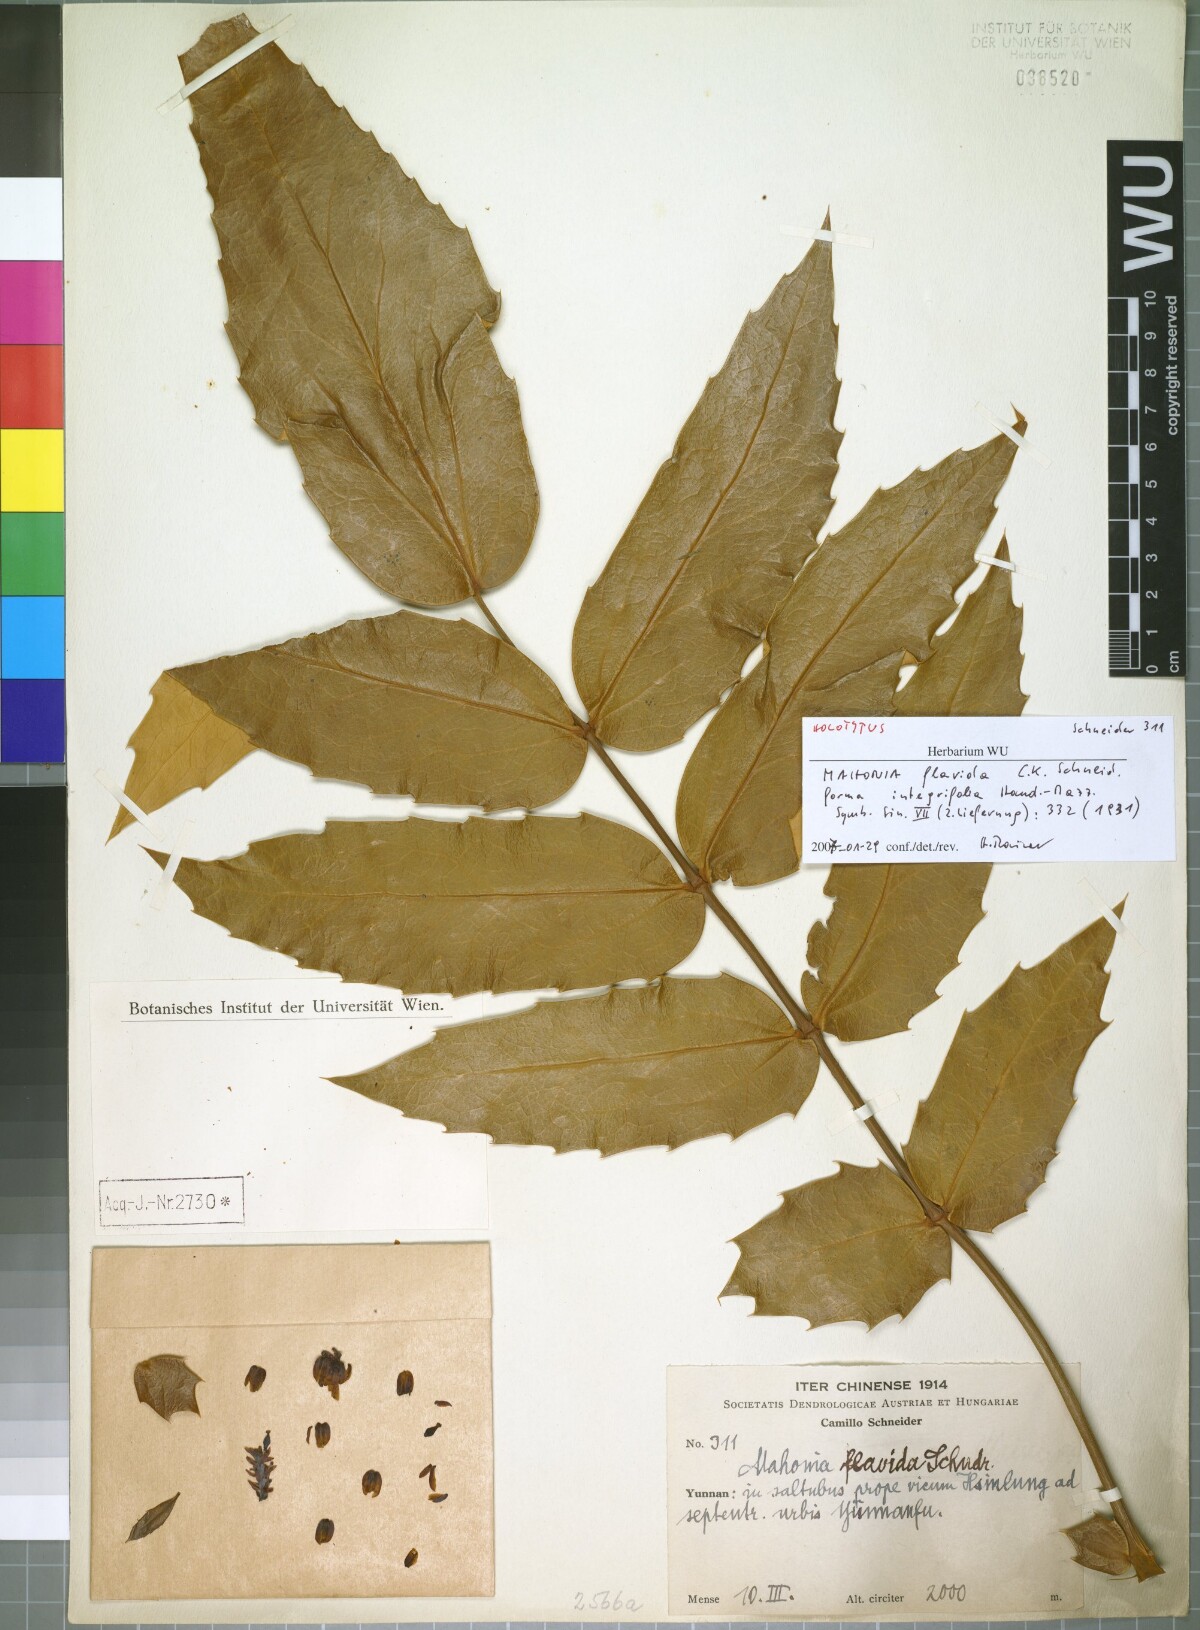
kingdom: Plantae
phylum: Tracheophyta
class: Magnoliopsida
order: Ranunculales
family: Berberidaceae
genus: Mahonia
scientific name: Mahonia napaulensis
